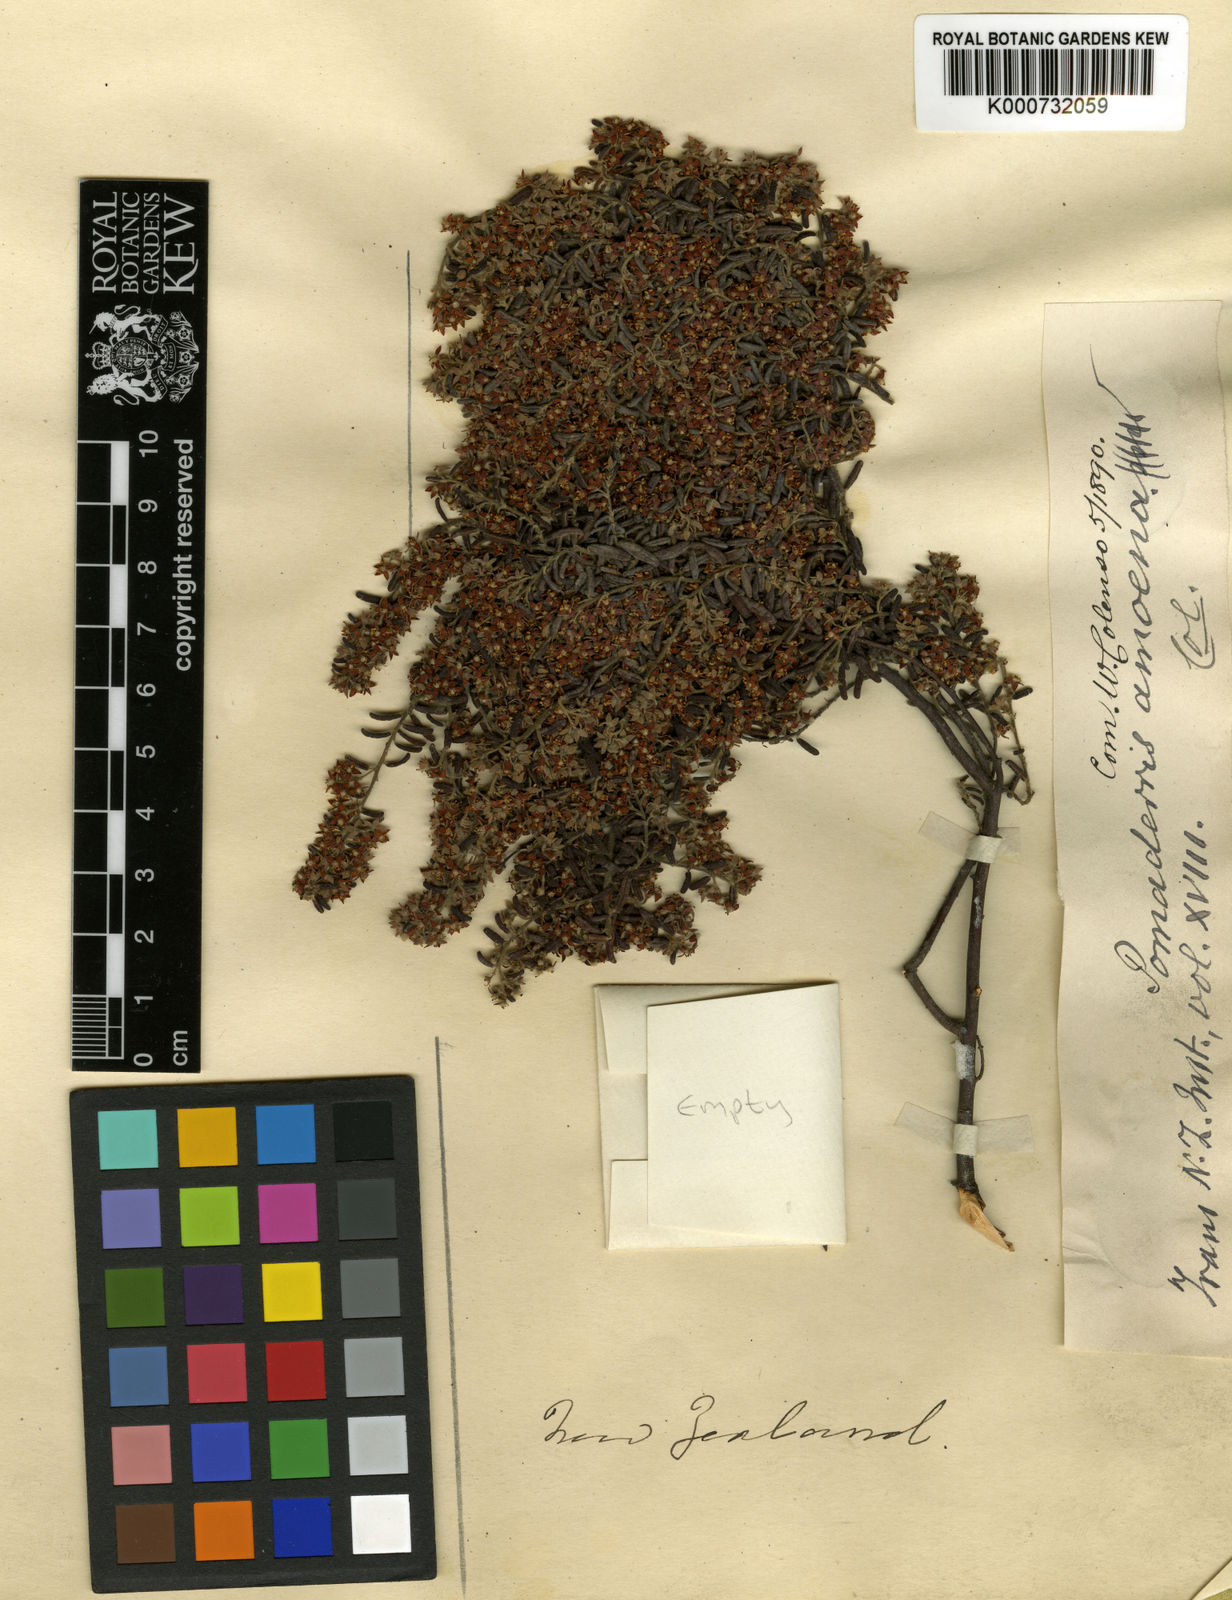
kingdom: Plantae
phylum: Tracheophyta
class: Magnoliopsida
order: Rosales
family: Rhamnaceae
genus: Pomaderris
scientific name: Pomaderris phylicifolia
